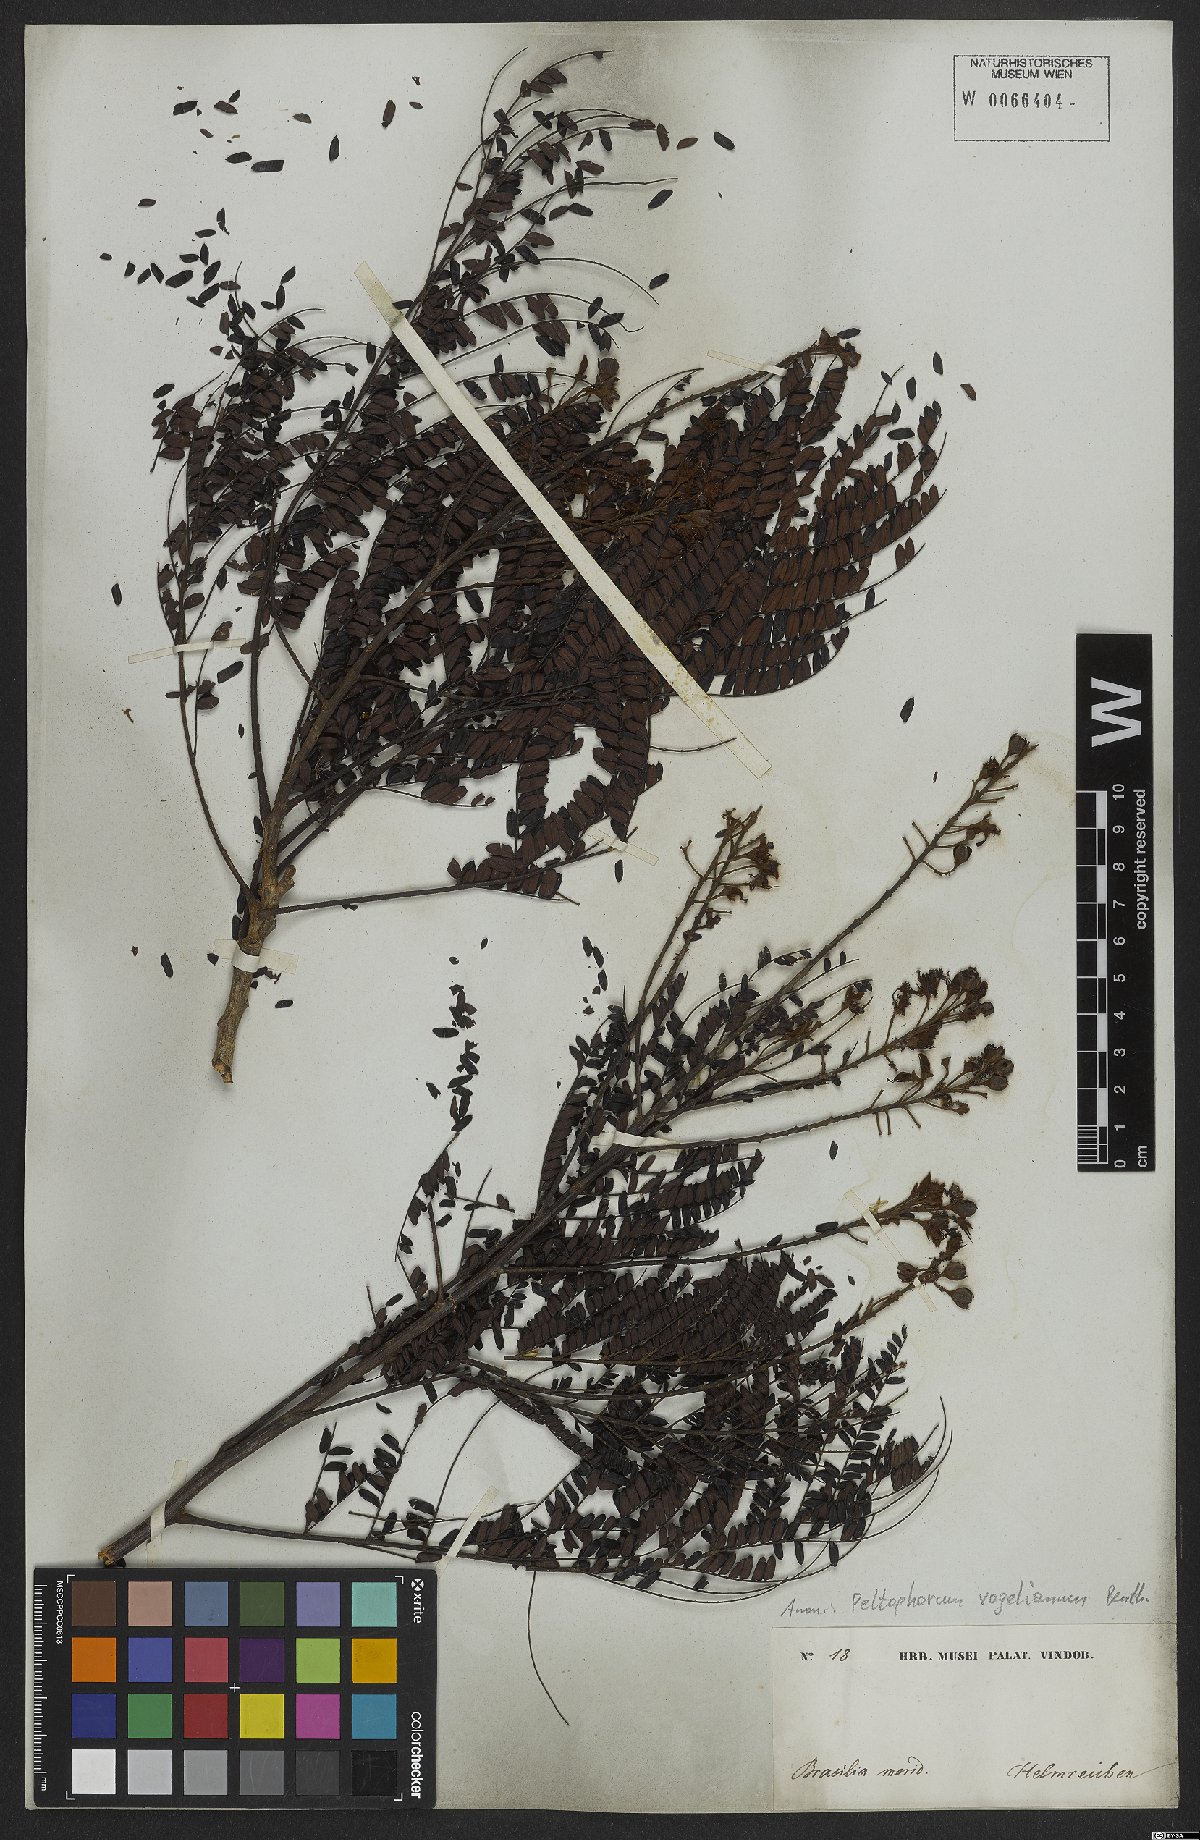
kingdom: Plantae
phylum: Tracheophyta
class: Magnoliopsida
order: Fabales
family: Fabaceae
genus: Peltophorum
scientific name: Peltophorum dubium
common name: Horsebush
